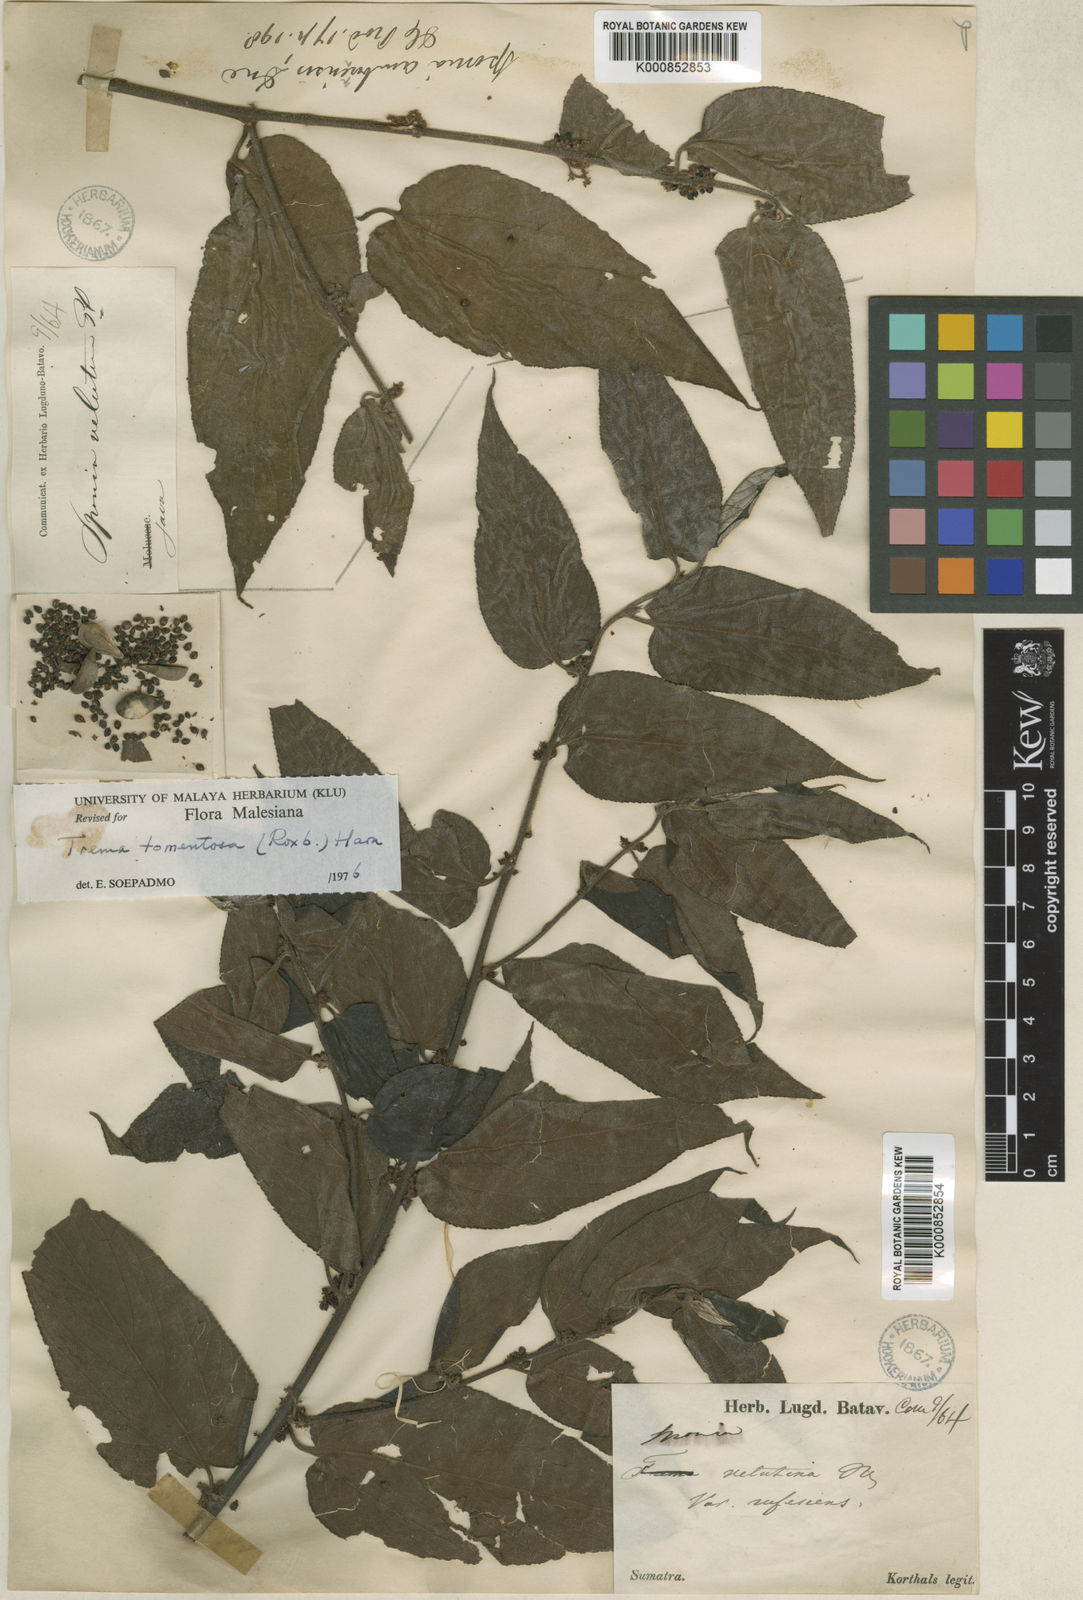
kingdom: Plantae
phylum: Tracheophyta
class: Magnoliopsida
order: Rosales
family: Cannabaceae
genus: Trema
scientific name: Trema tomentosum
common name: Peach-leaf-poisonbush
